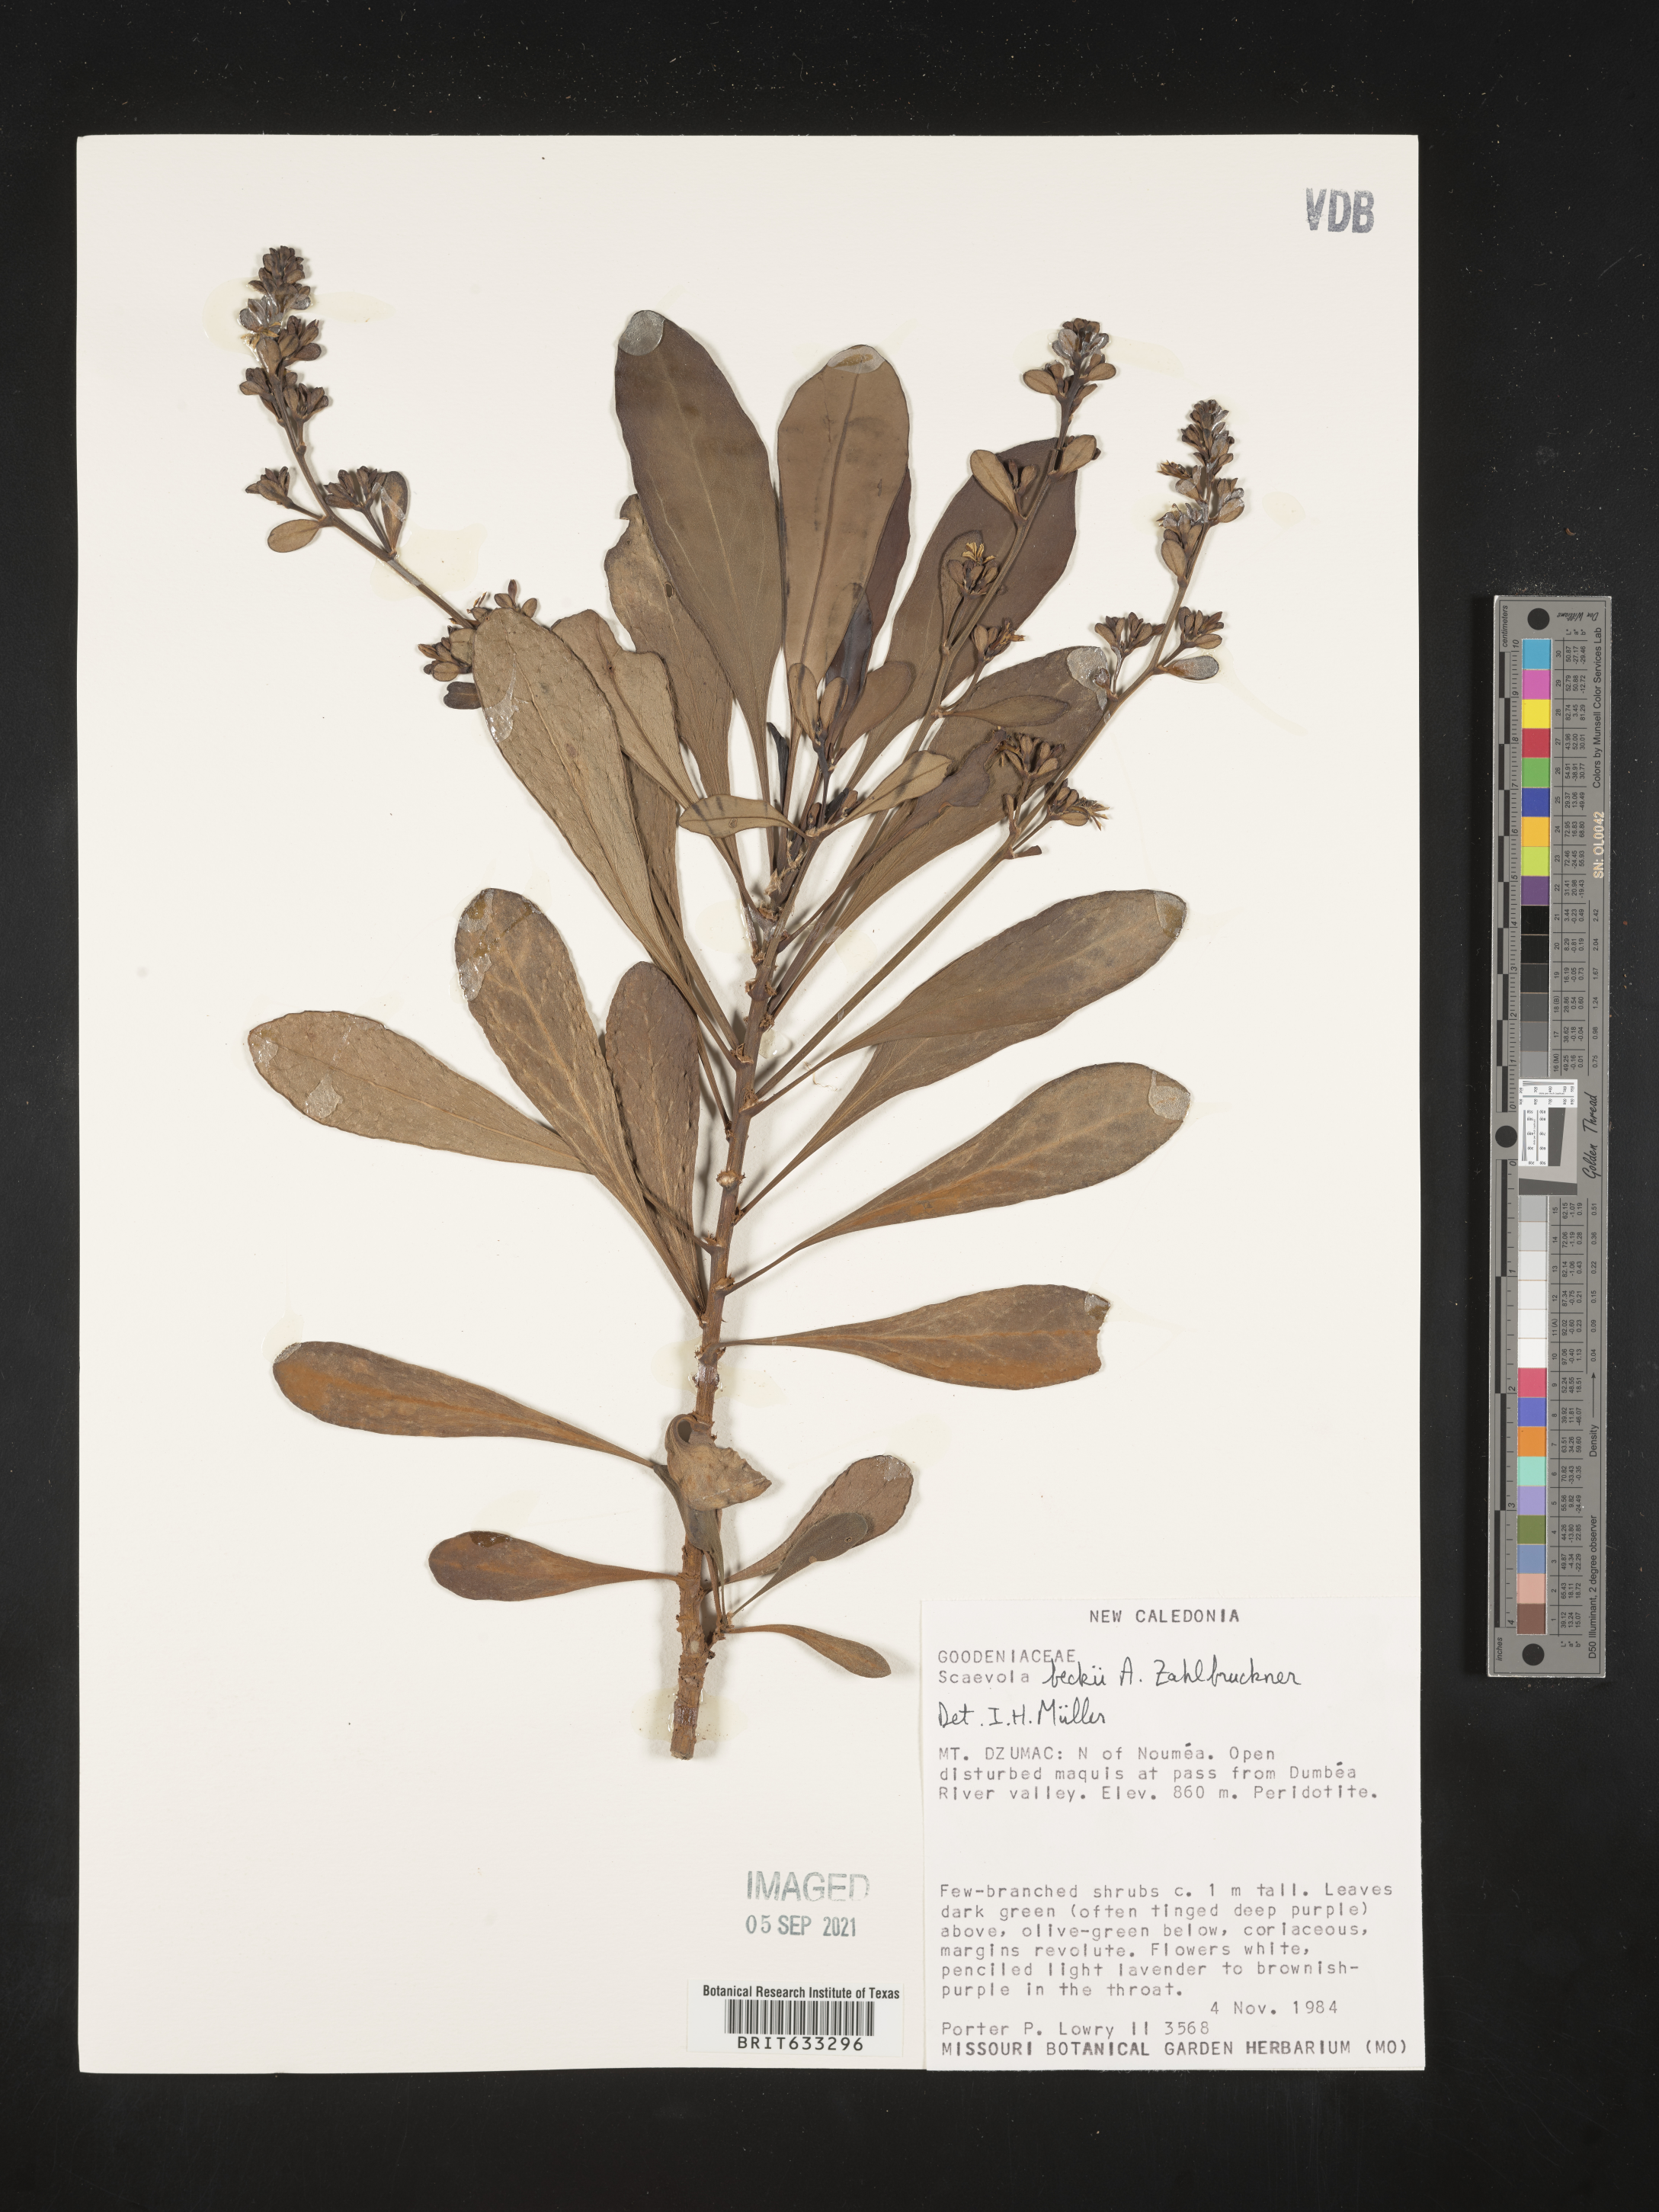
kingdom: Plantae
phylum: Tracheophyta
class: Magnoliopsida
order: Asterales
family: Goodeniaceae
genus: Scaevola
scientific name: Scaevola
